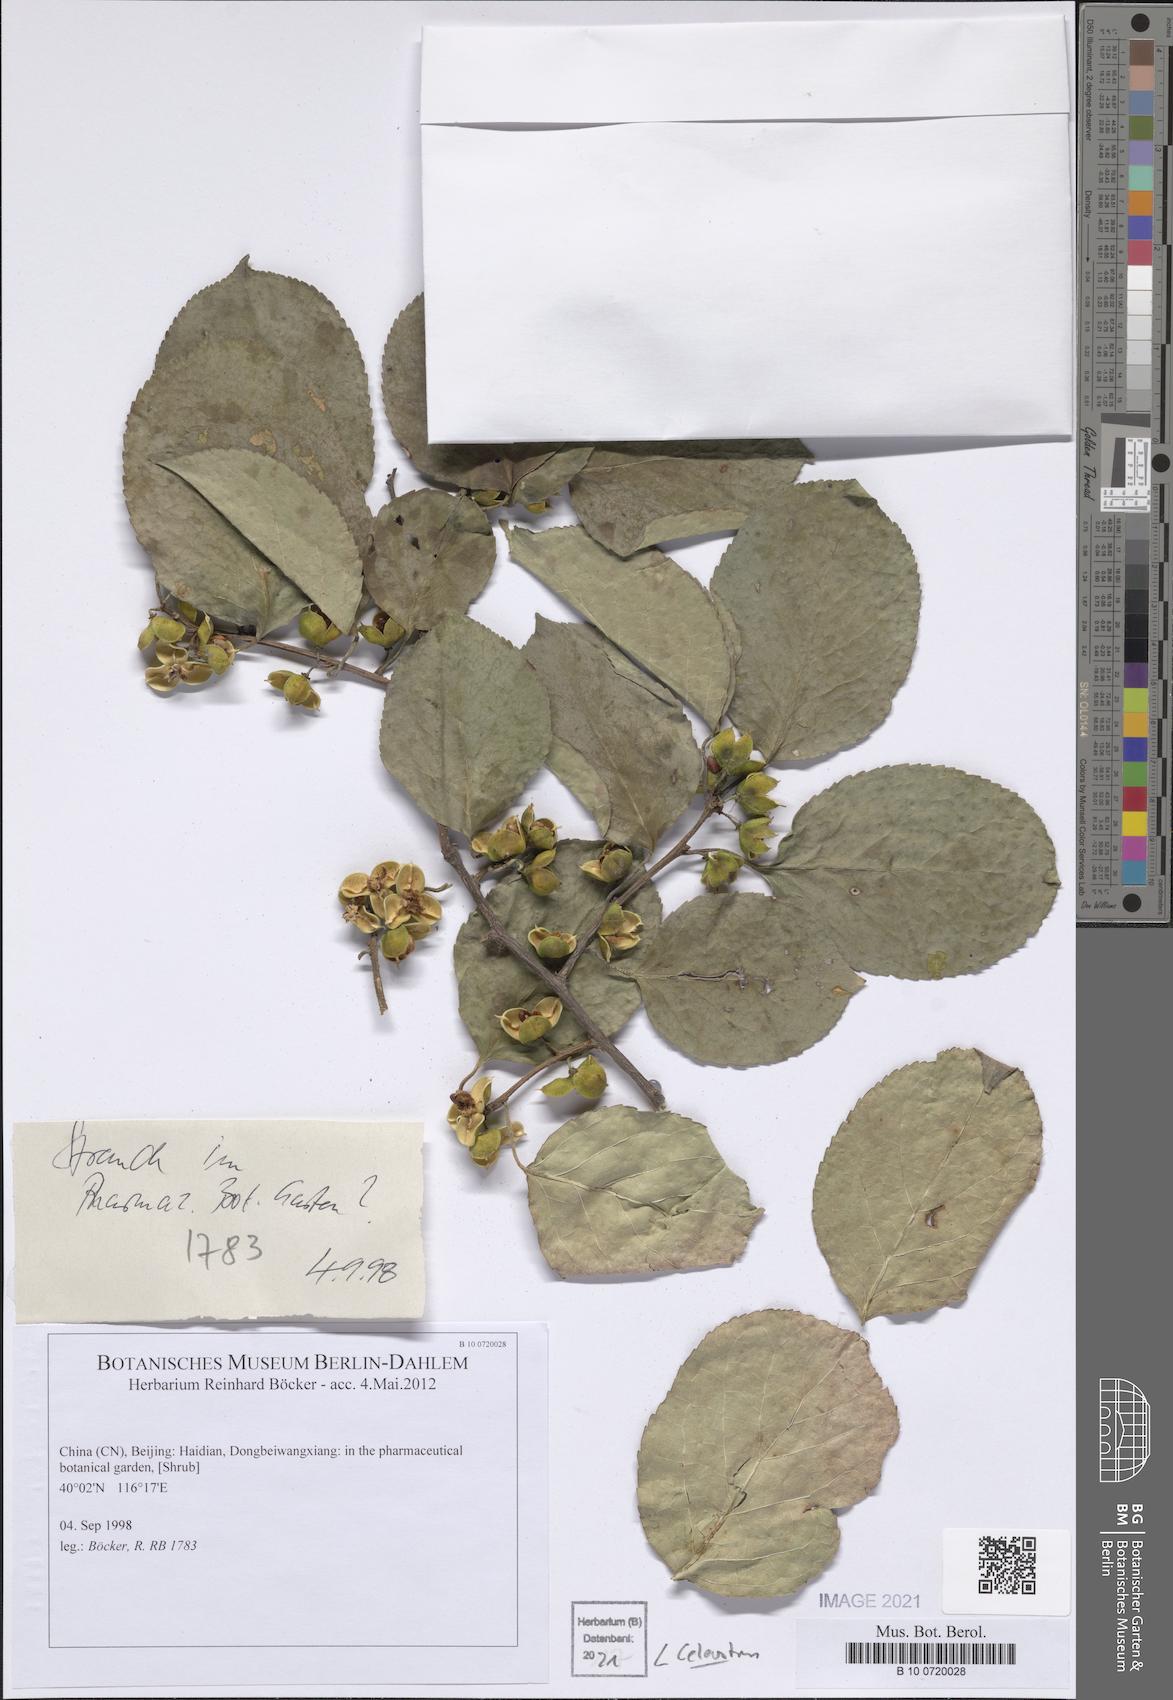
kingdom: Plantae
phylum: Tracheophyta
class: Magnoliopsida
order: Celastrales
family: Celastraceae
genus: Celastrus
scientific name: Celastrus
